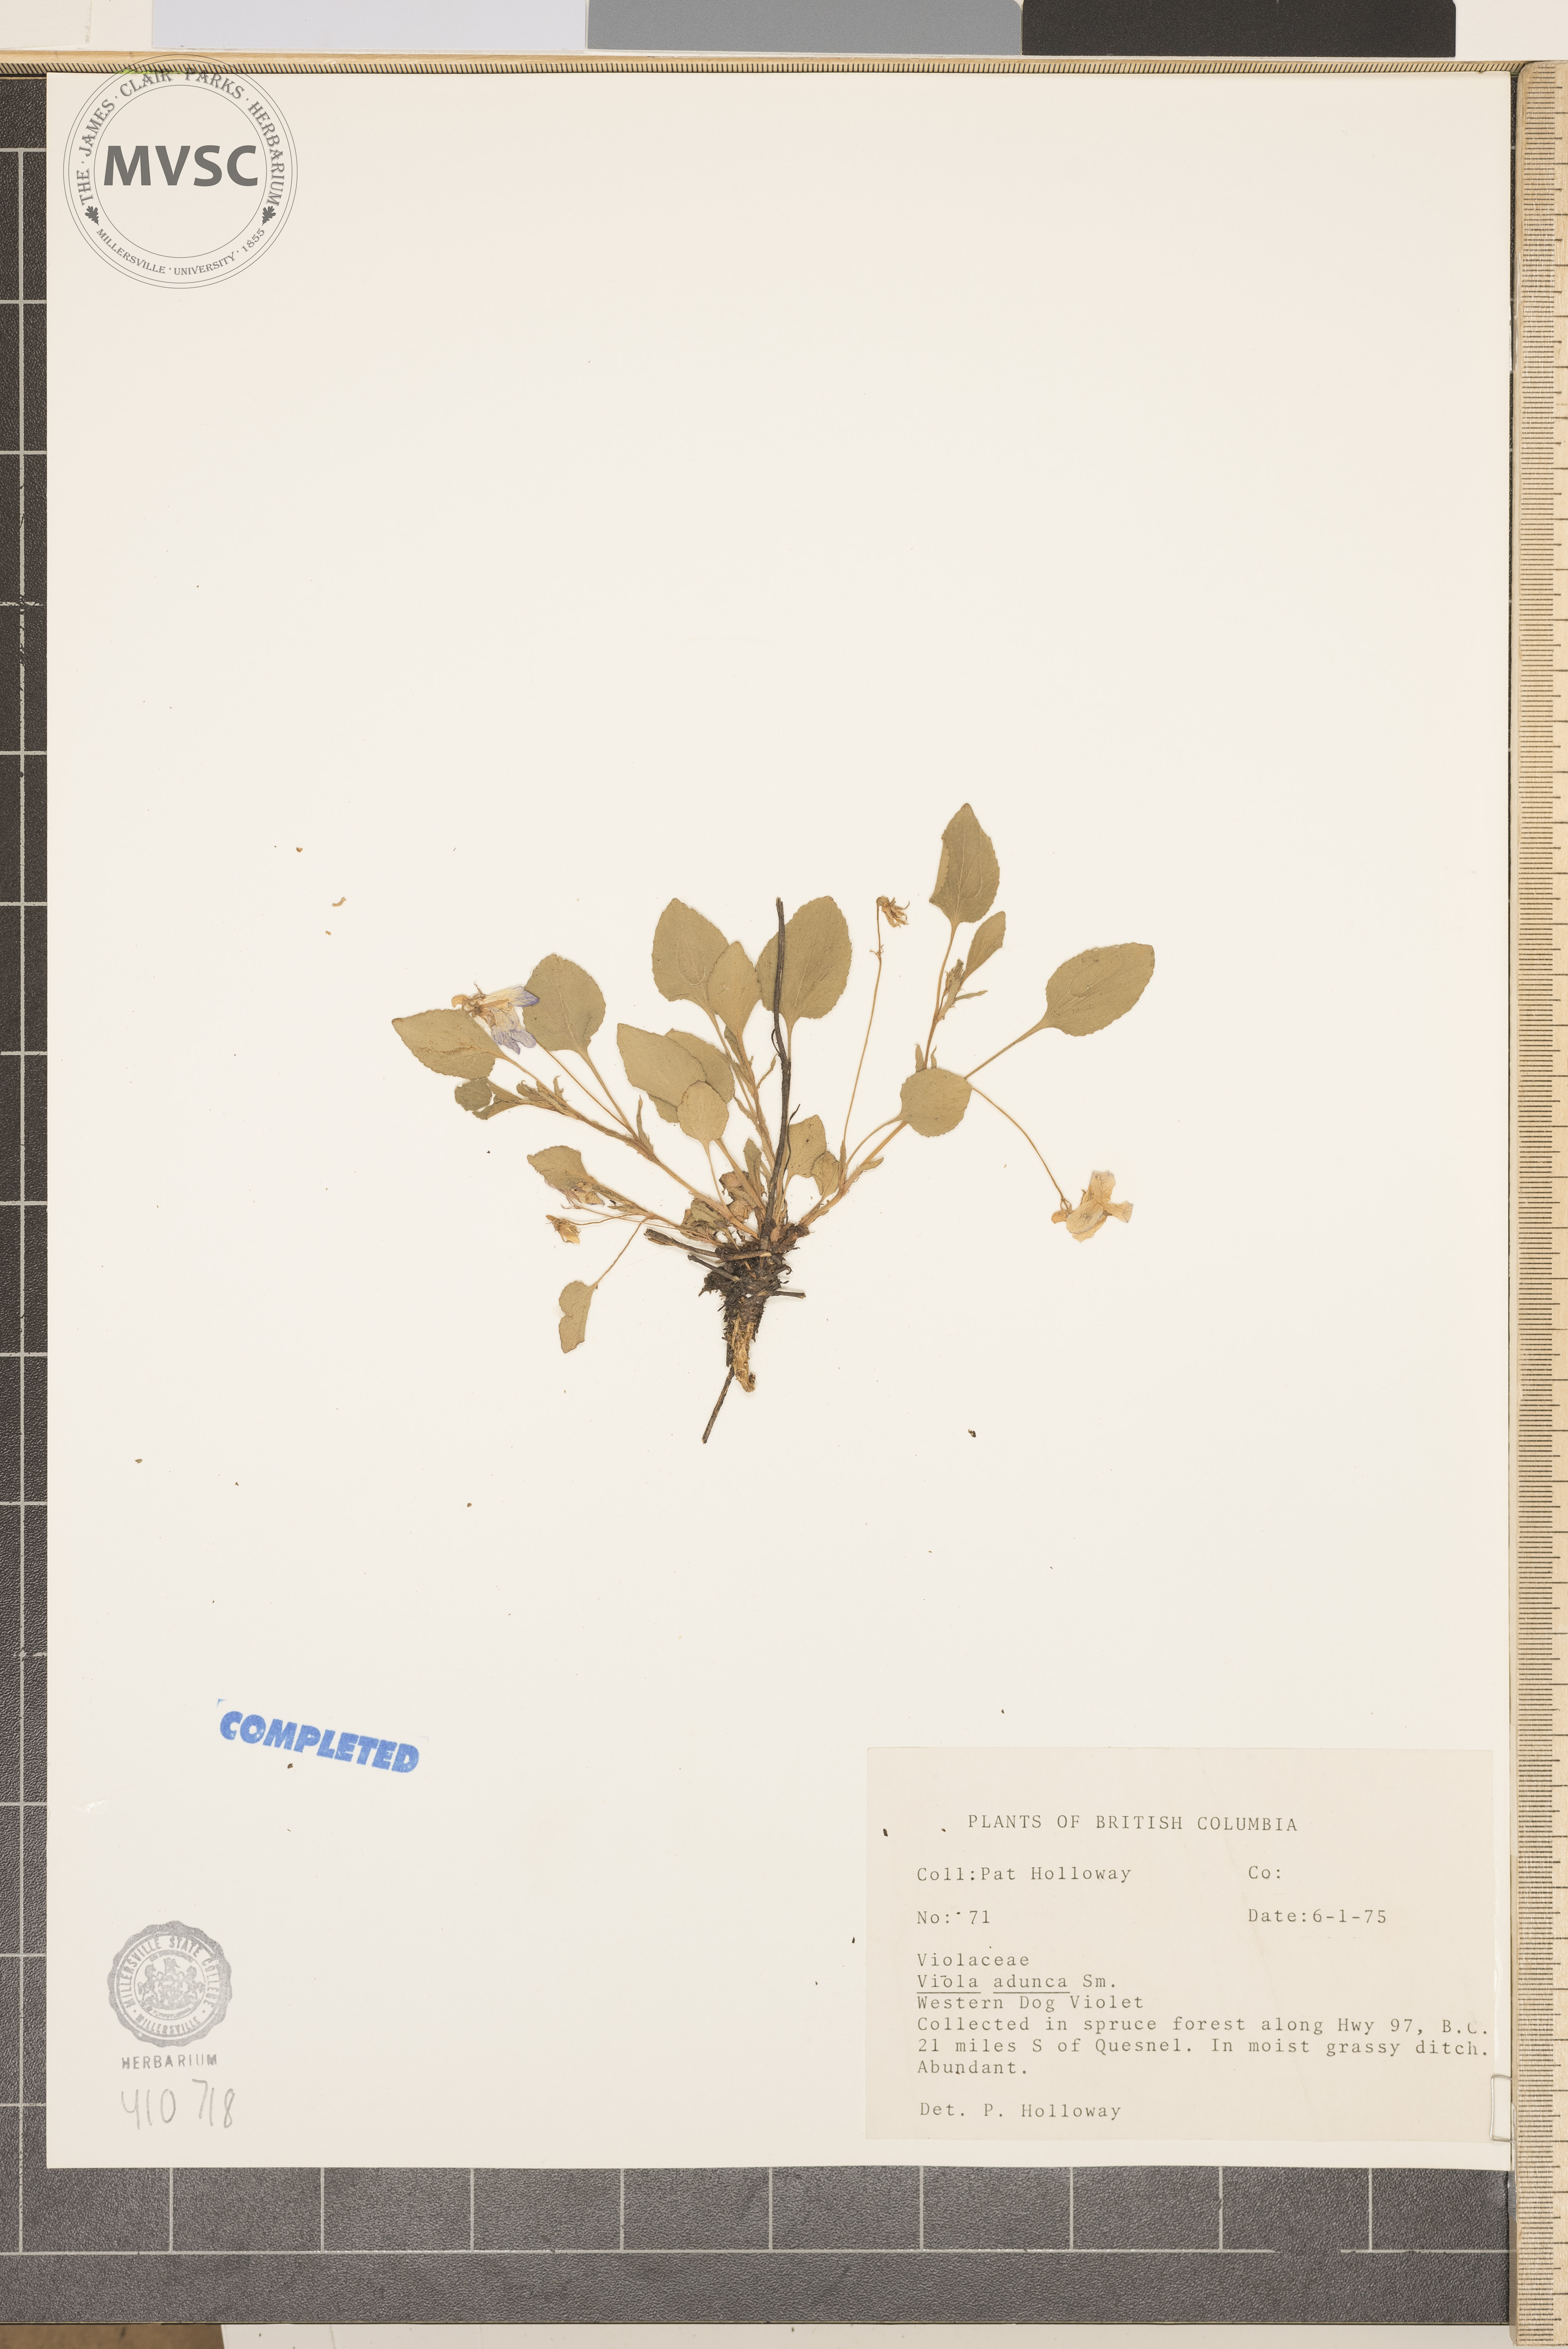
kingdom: Plantae
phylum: Tracheophyta
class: Magnoliopsida
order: Malpighiales
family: Violaceae
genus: Viola
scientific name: Viola adunca
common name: Sand violet
